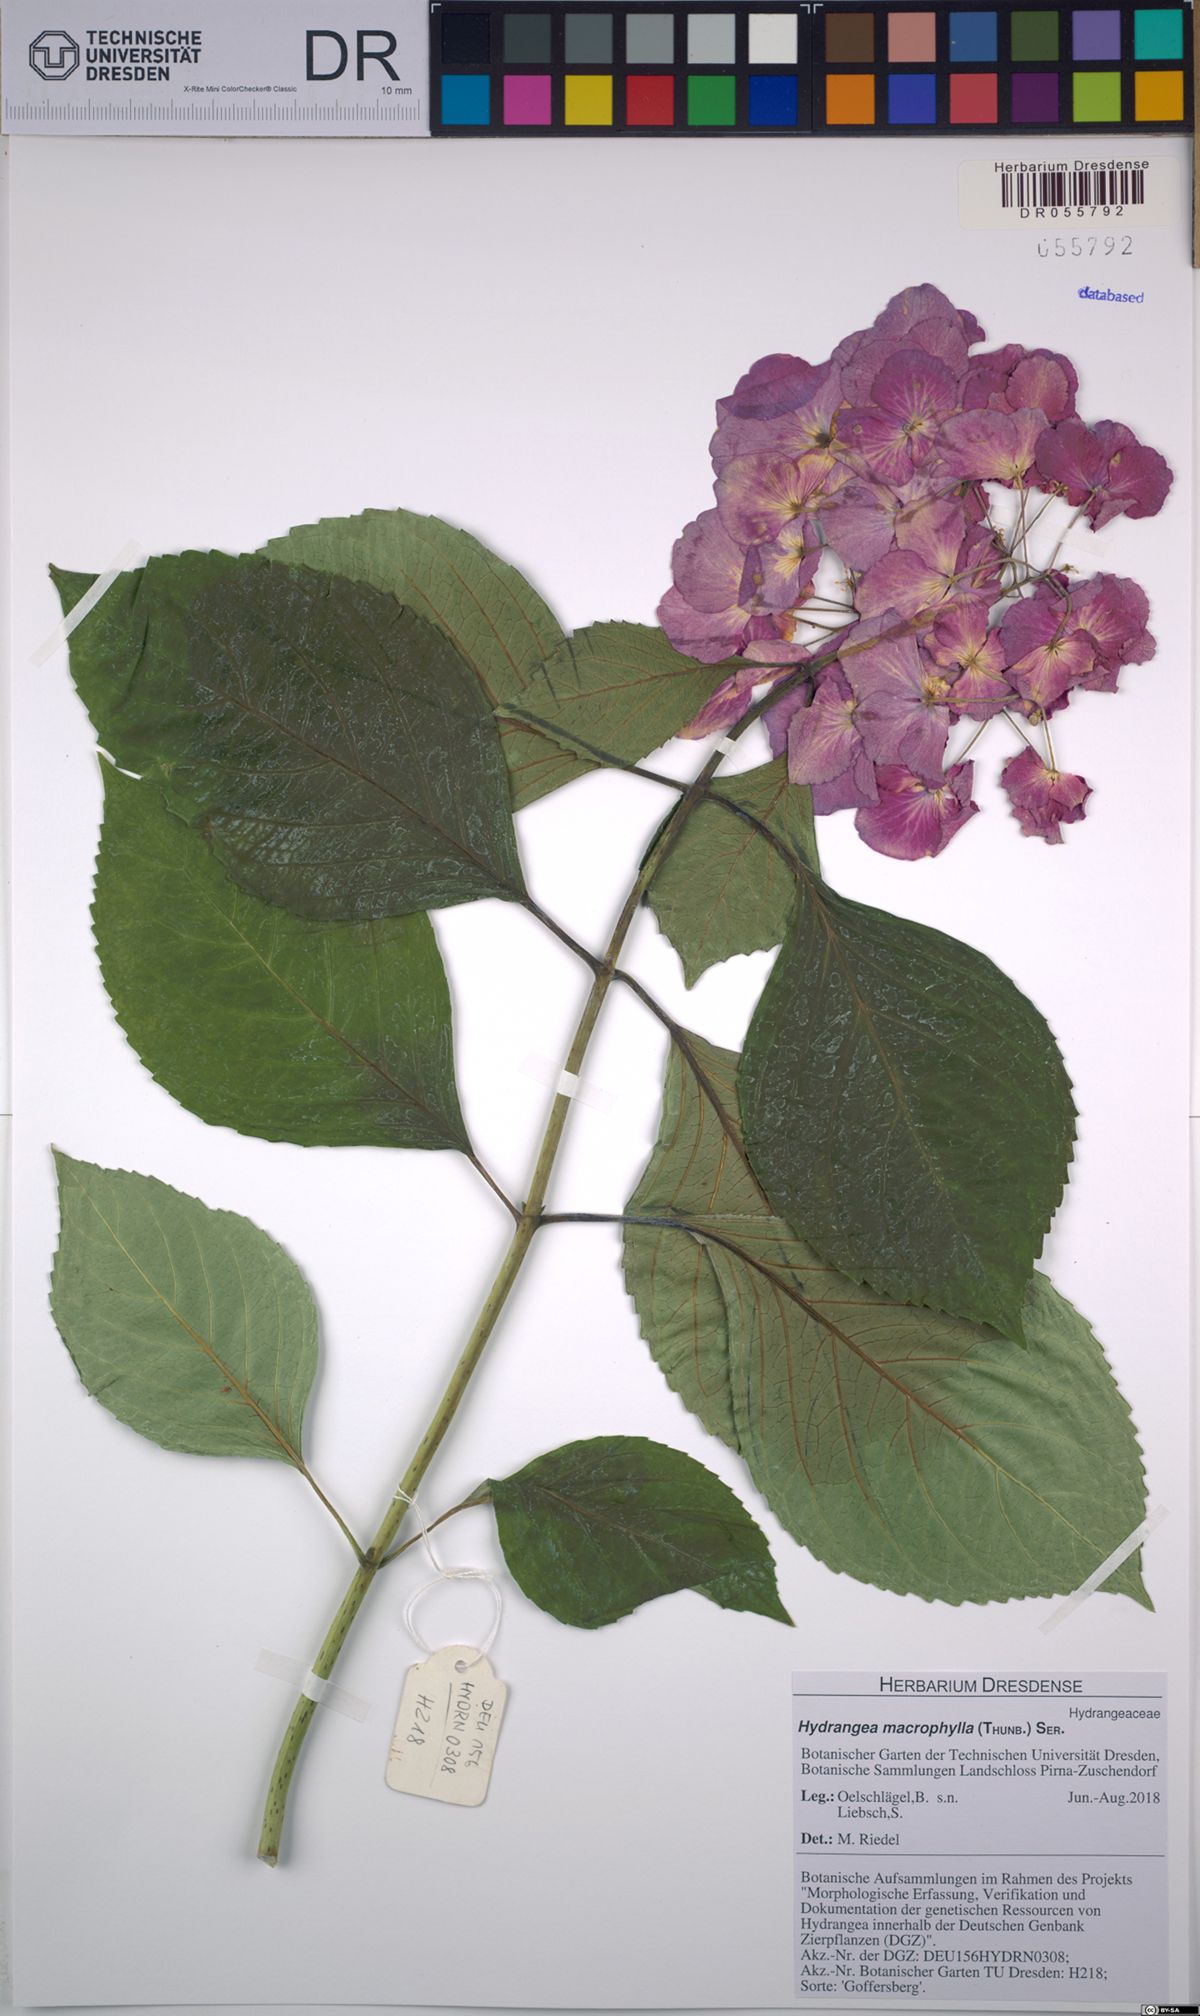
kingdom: Plantae
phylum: Tracheophyta
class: Magnoliopsida
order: Cornales
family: Hydrangeaceae
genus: Hydrangea
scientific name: Hydrangea macrophylla
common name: Hydrangea
